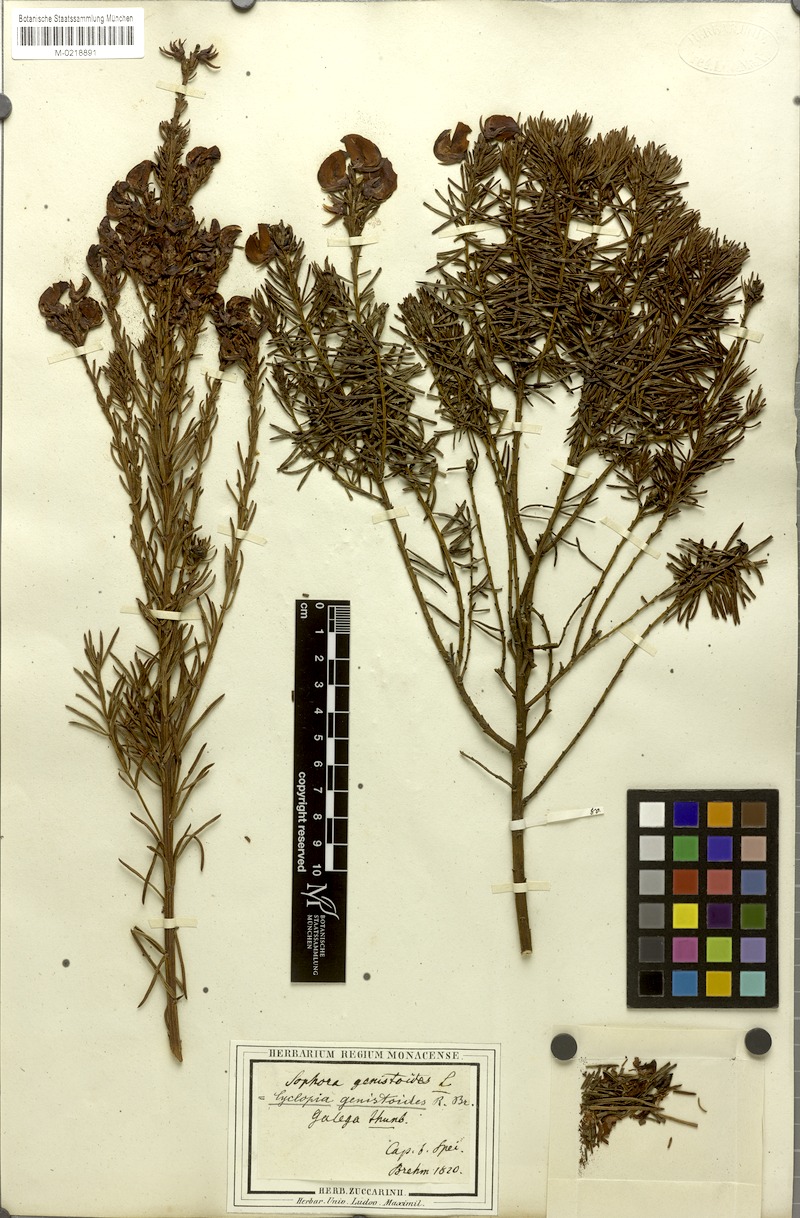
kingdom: Plantae
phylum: Tracheophyta
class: Magnoliopsida
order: Fabales
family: Fabaceae
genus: Cyclopia
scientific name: Cyclopia genistoides
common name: Honeybush tea
